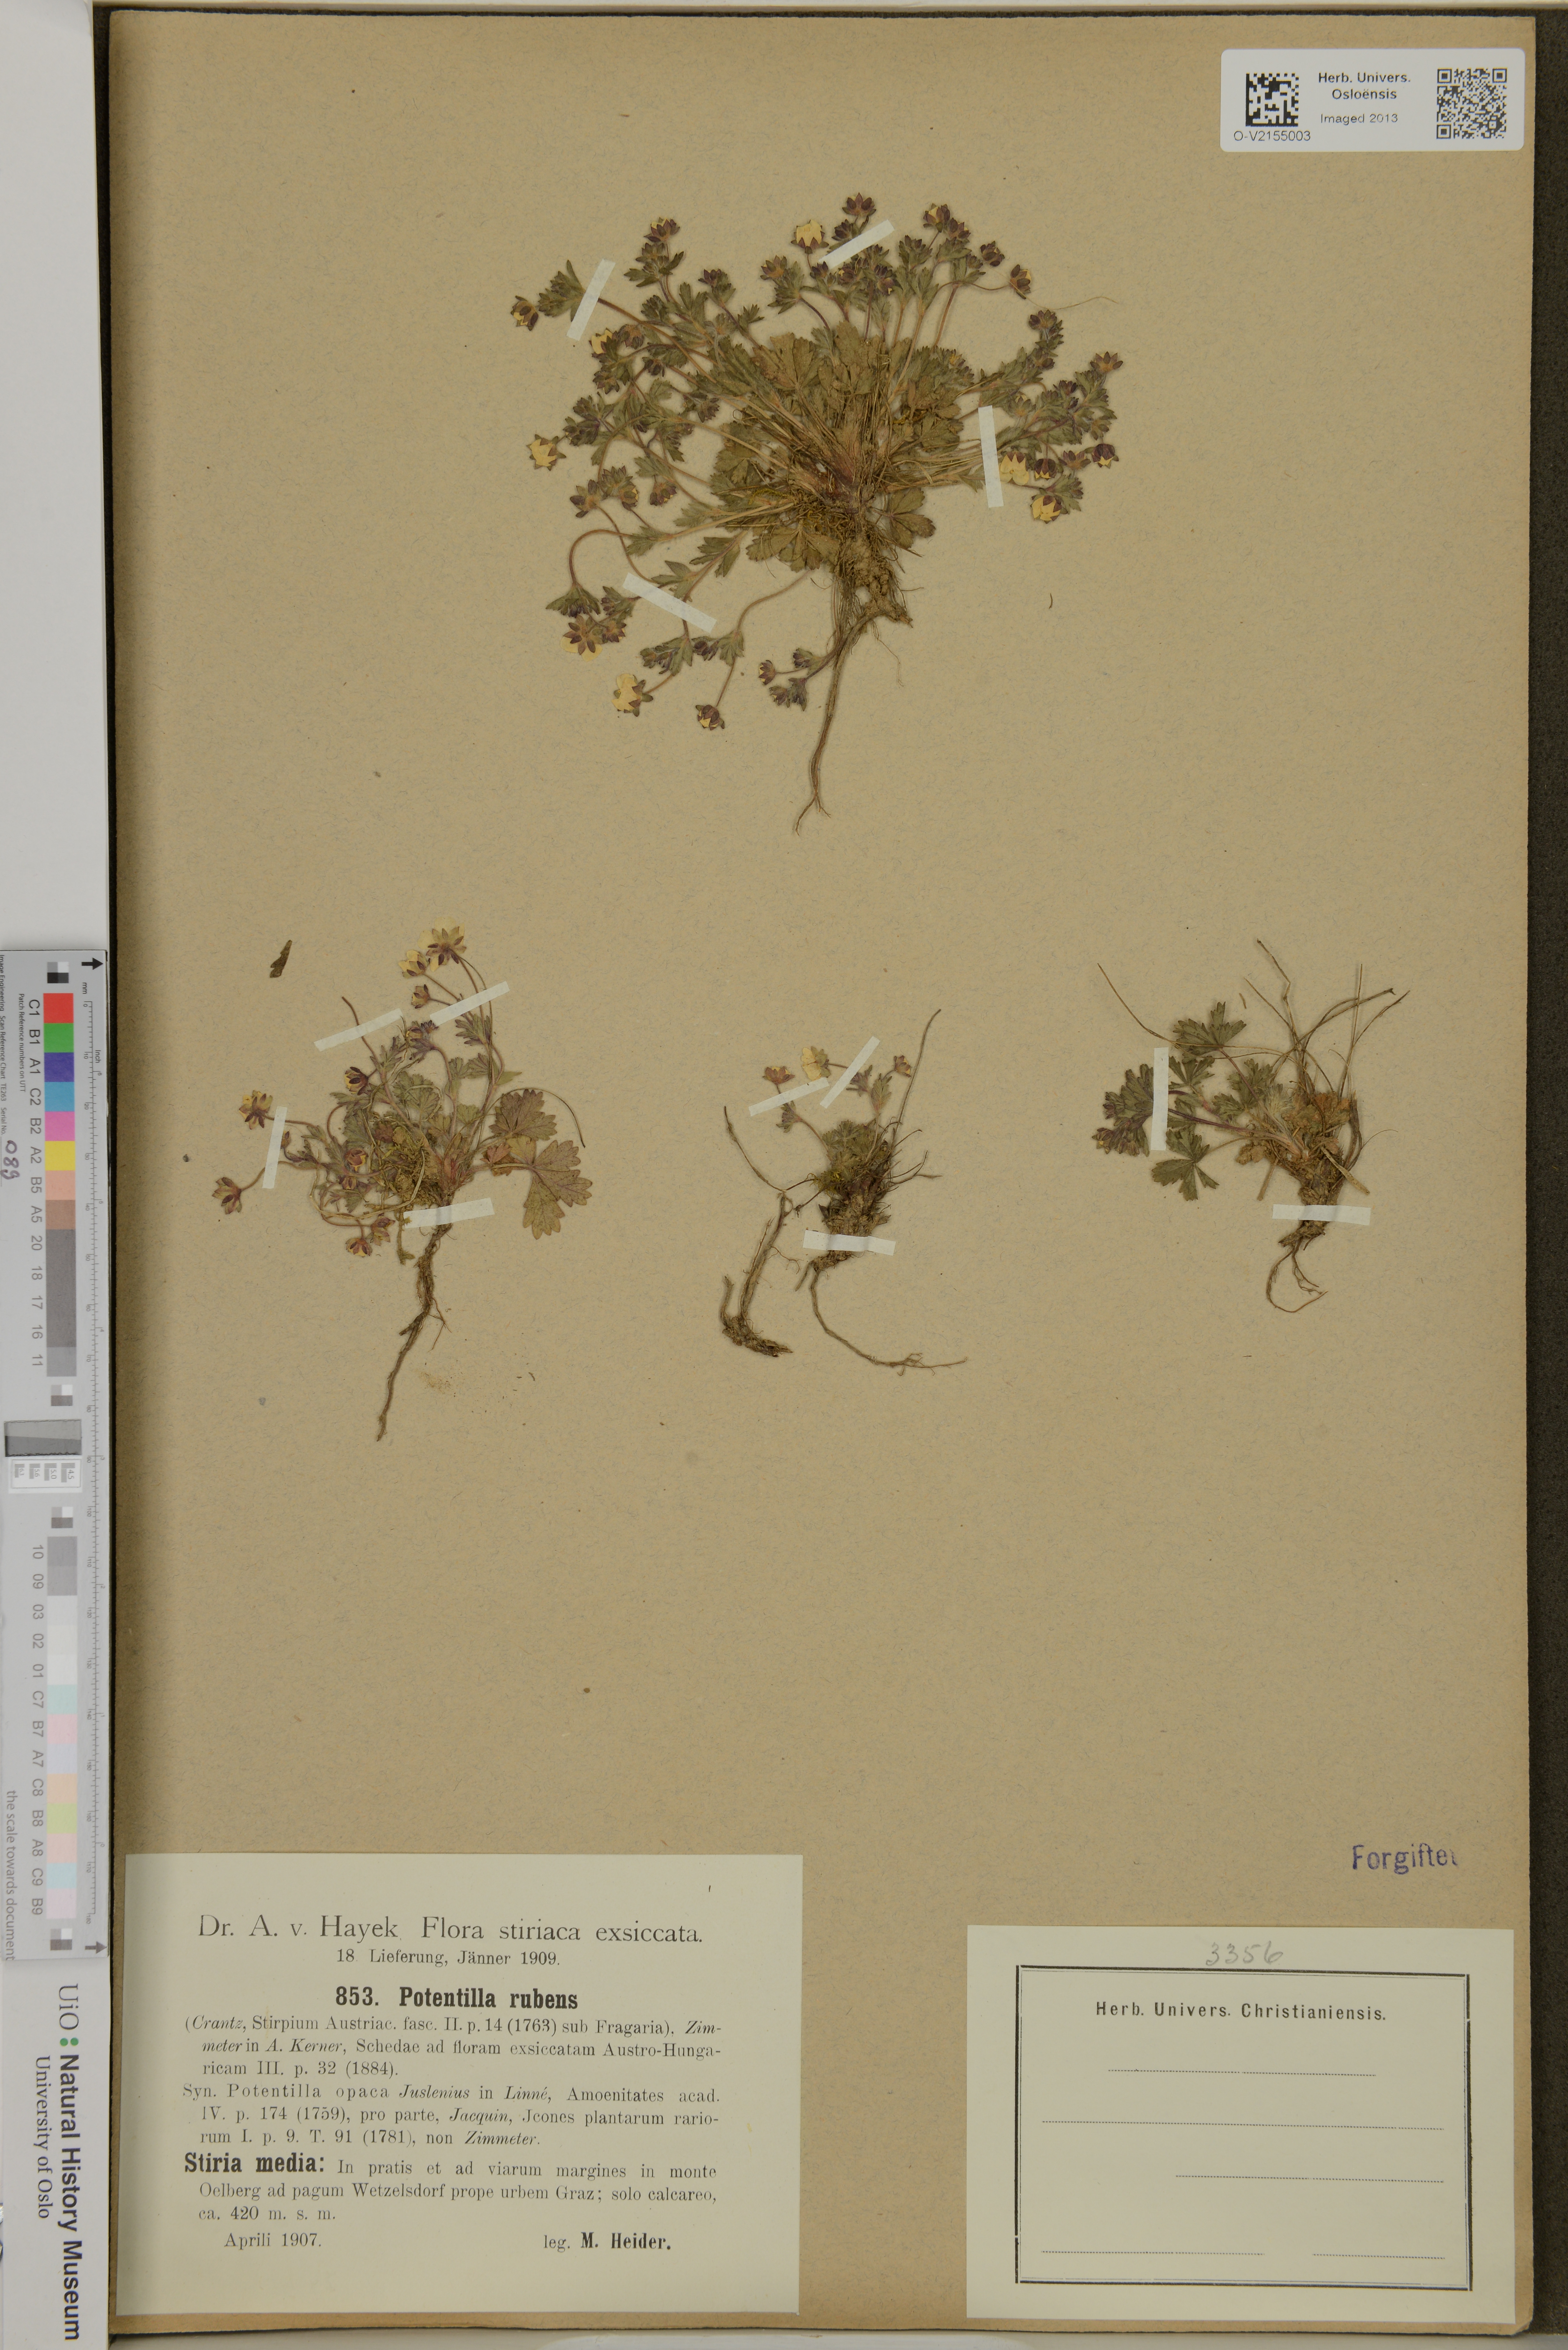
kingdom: Plantae
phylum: Tracheophyta
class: Magnoliopsida
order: Rosales
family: Rosaceae
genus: Potentilla
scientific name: Potentilla heptaphylla
